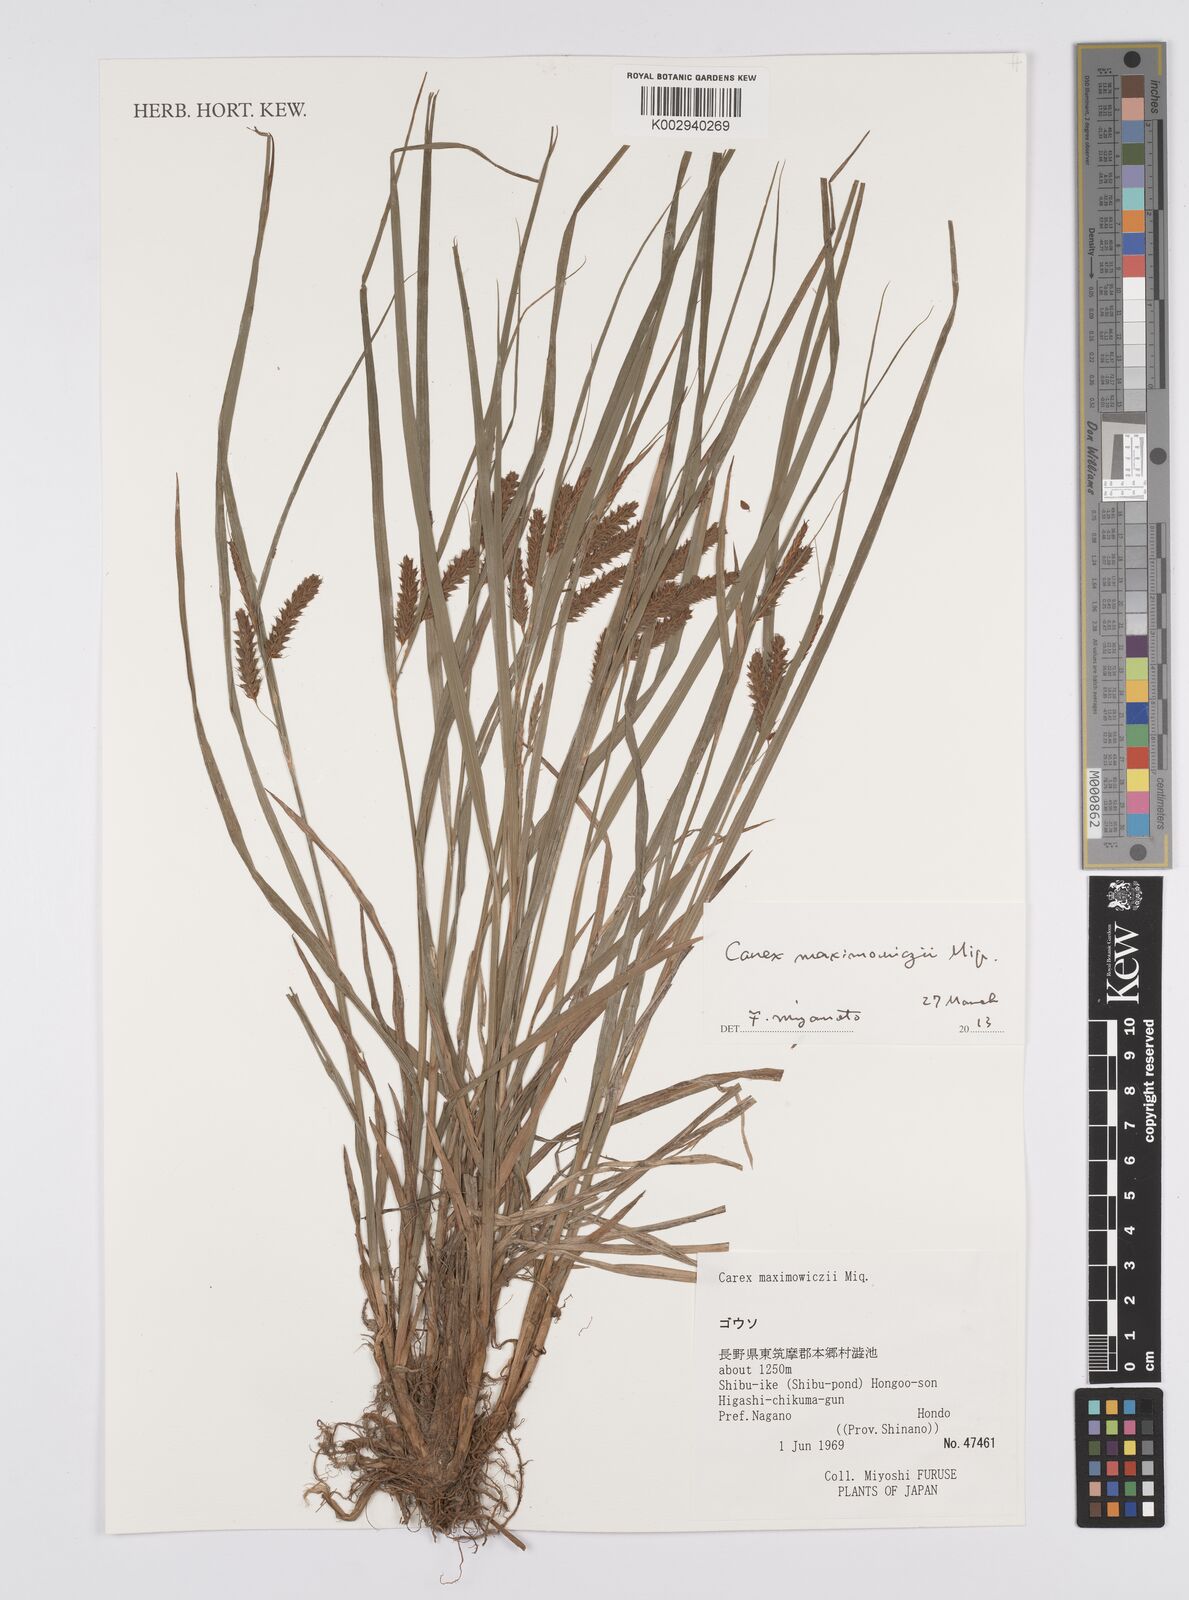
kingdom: Plantae
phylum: Tracheophyta
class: Liliopsida
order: Poales
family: Cyperaceae
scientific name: Cyperaceae
